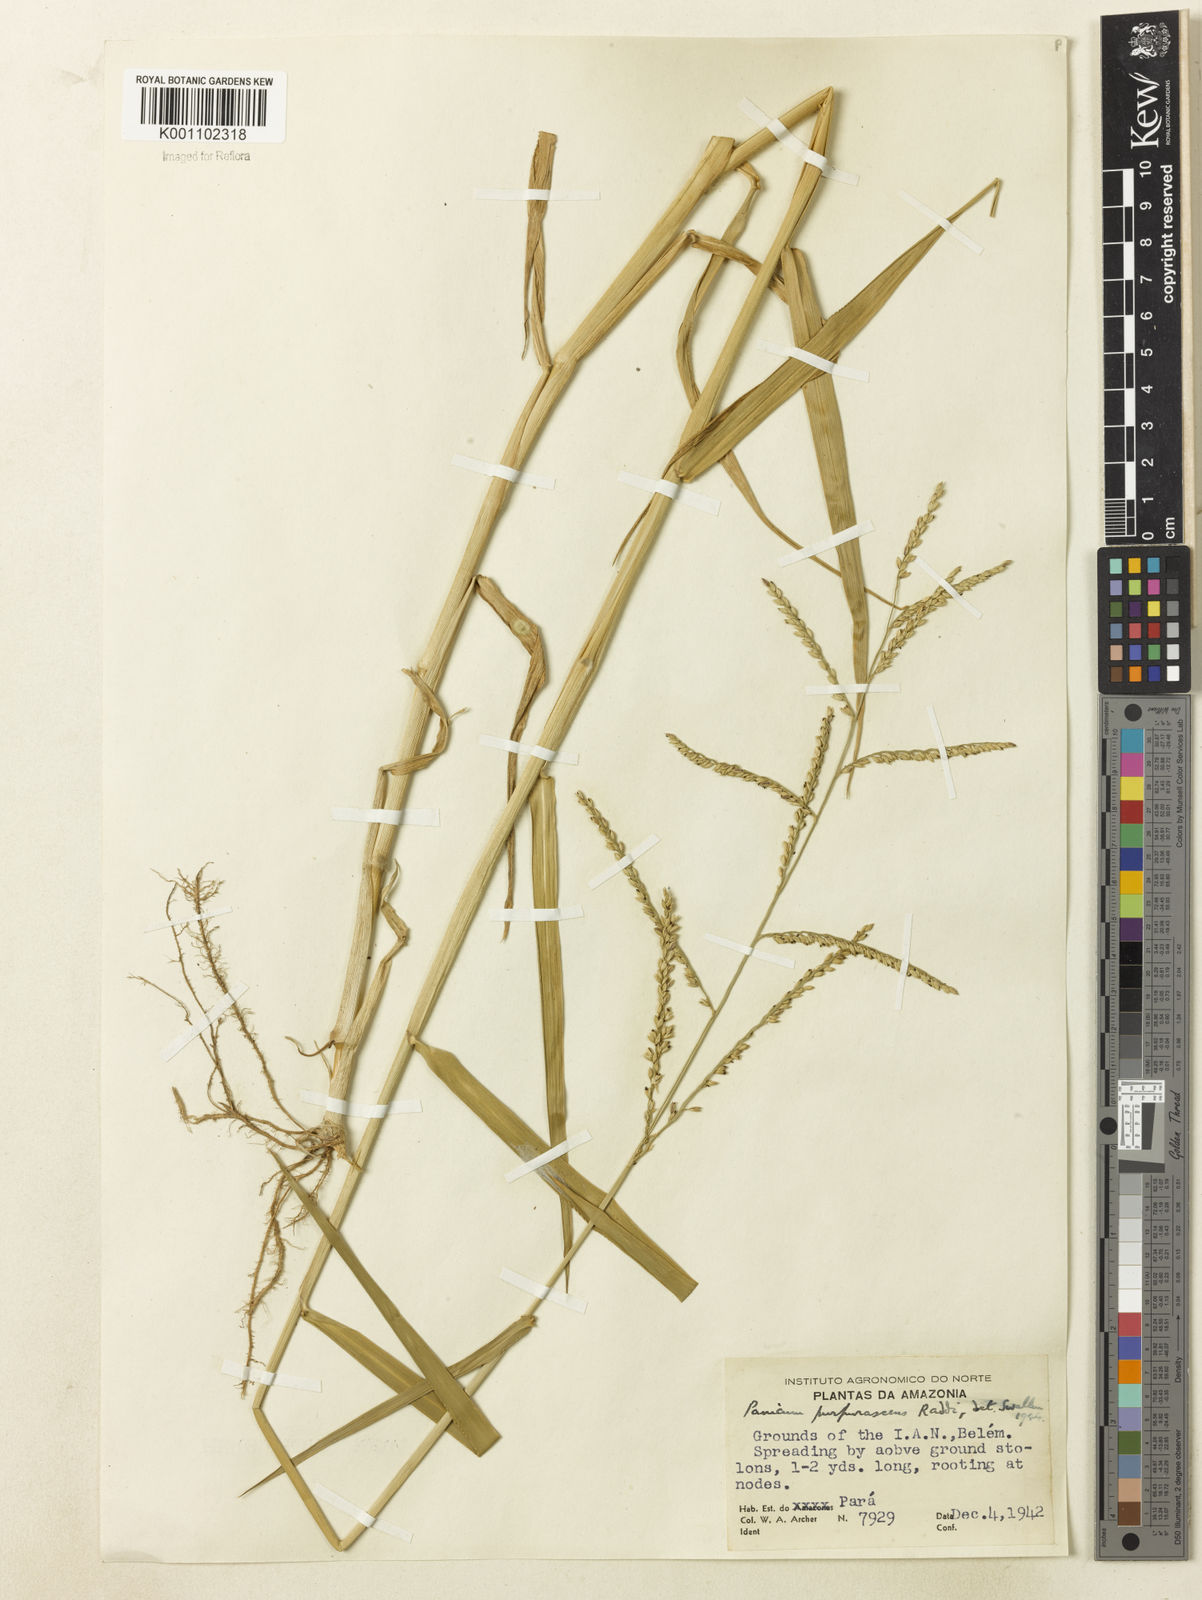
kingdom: Plantae
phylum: Tracheophyta
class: Liliopsida
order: Poales
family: Poaceae
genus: Urochloa
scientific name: Urochloa mutica
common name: Para grass
